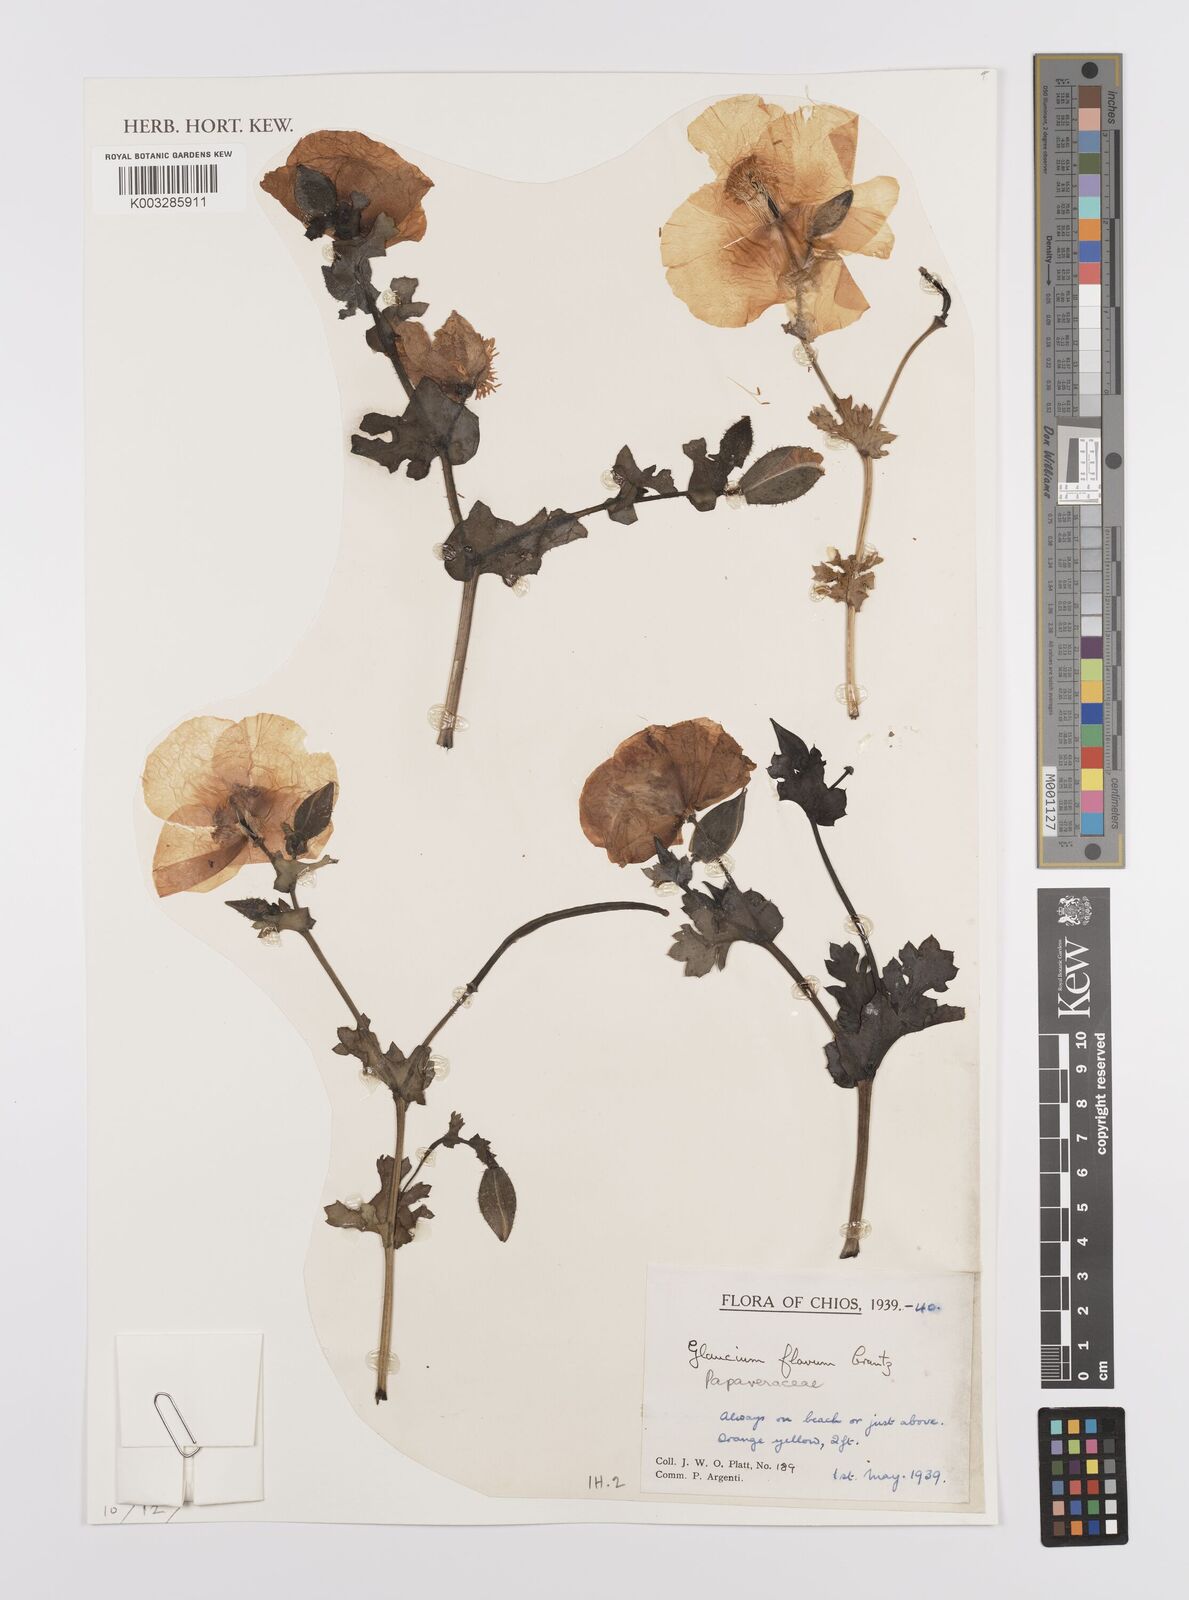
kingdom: Plantae
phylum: Tracheophyta
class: Magnoliopsida
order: Ranunculales
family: Papaveraceae
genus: Glaucium
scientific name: Glaucium flavum
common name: Yellow horned-poppy
